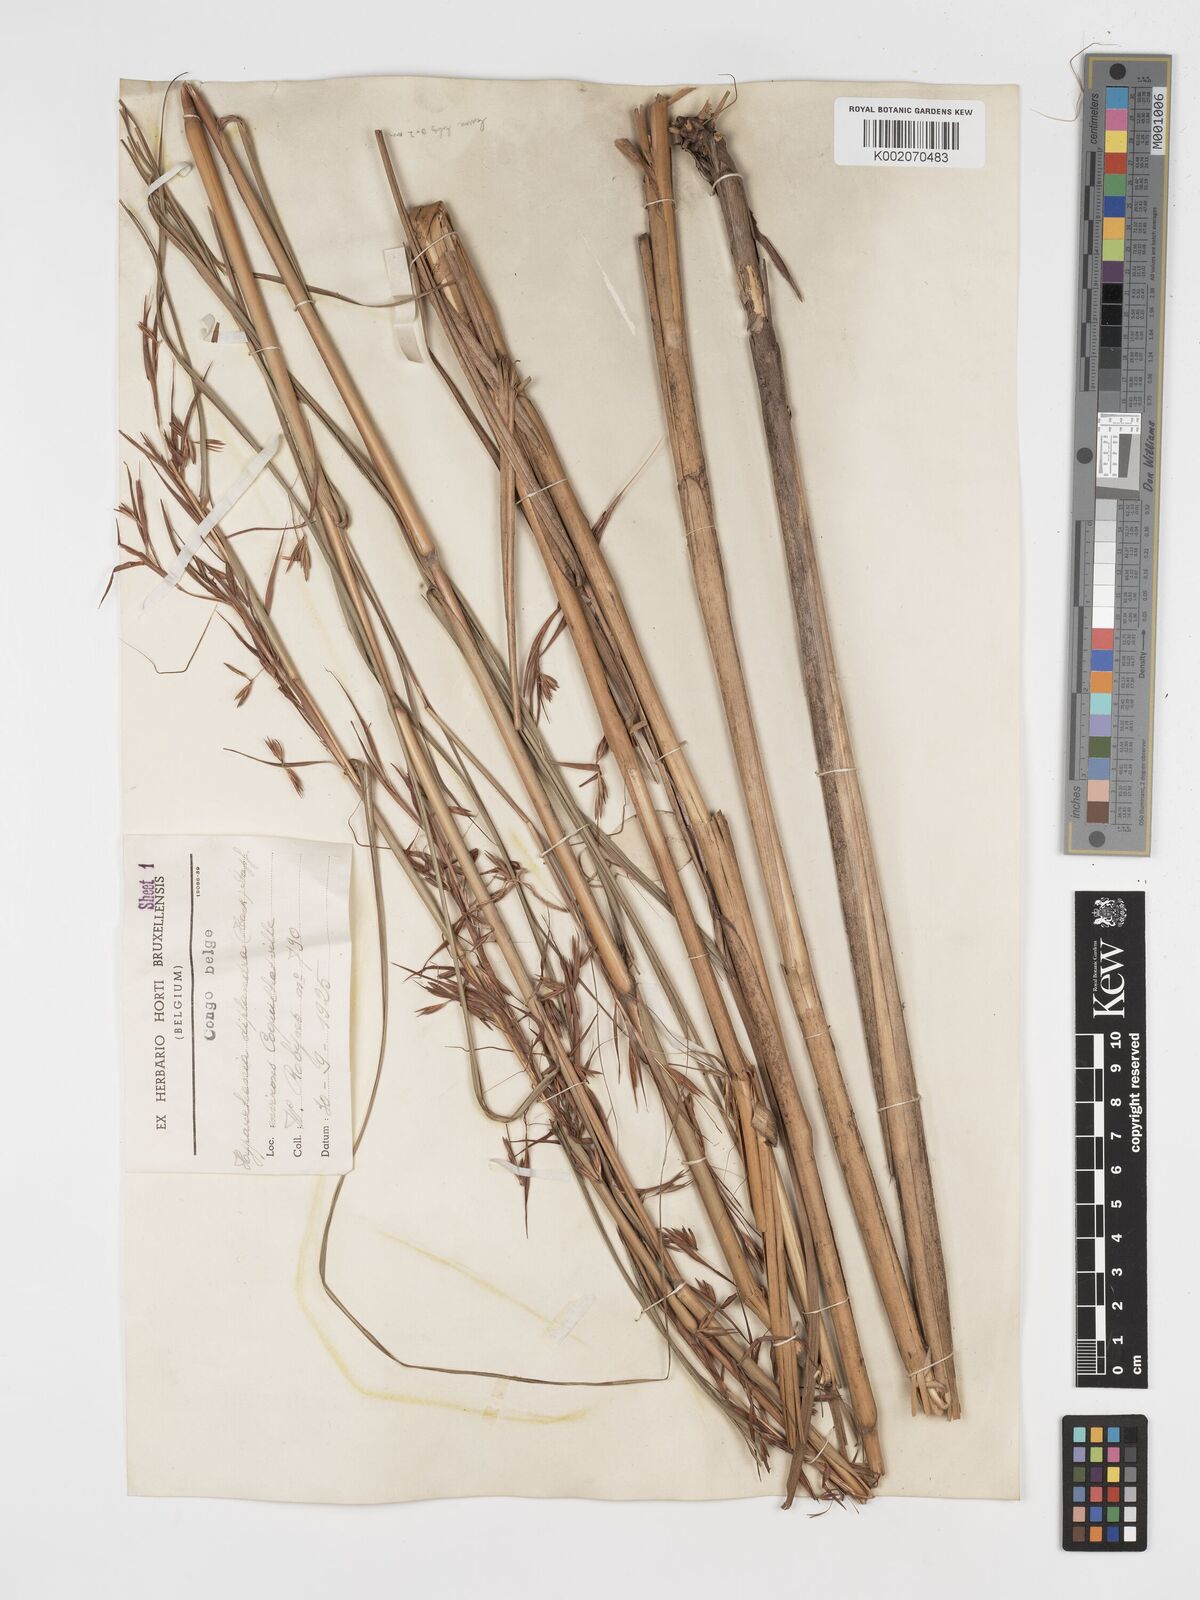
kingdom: Plantae
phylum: Tracheophyta
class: Liliopsida
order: Poales
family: Poaceae
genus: Hyparrhenia
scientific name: Hyparrhenia diplandra
